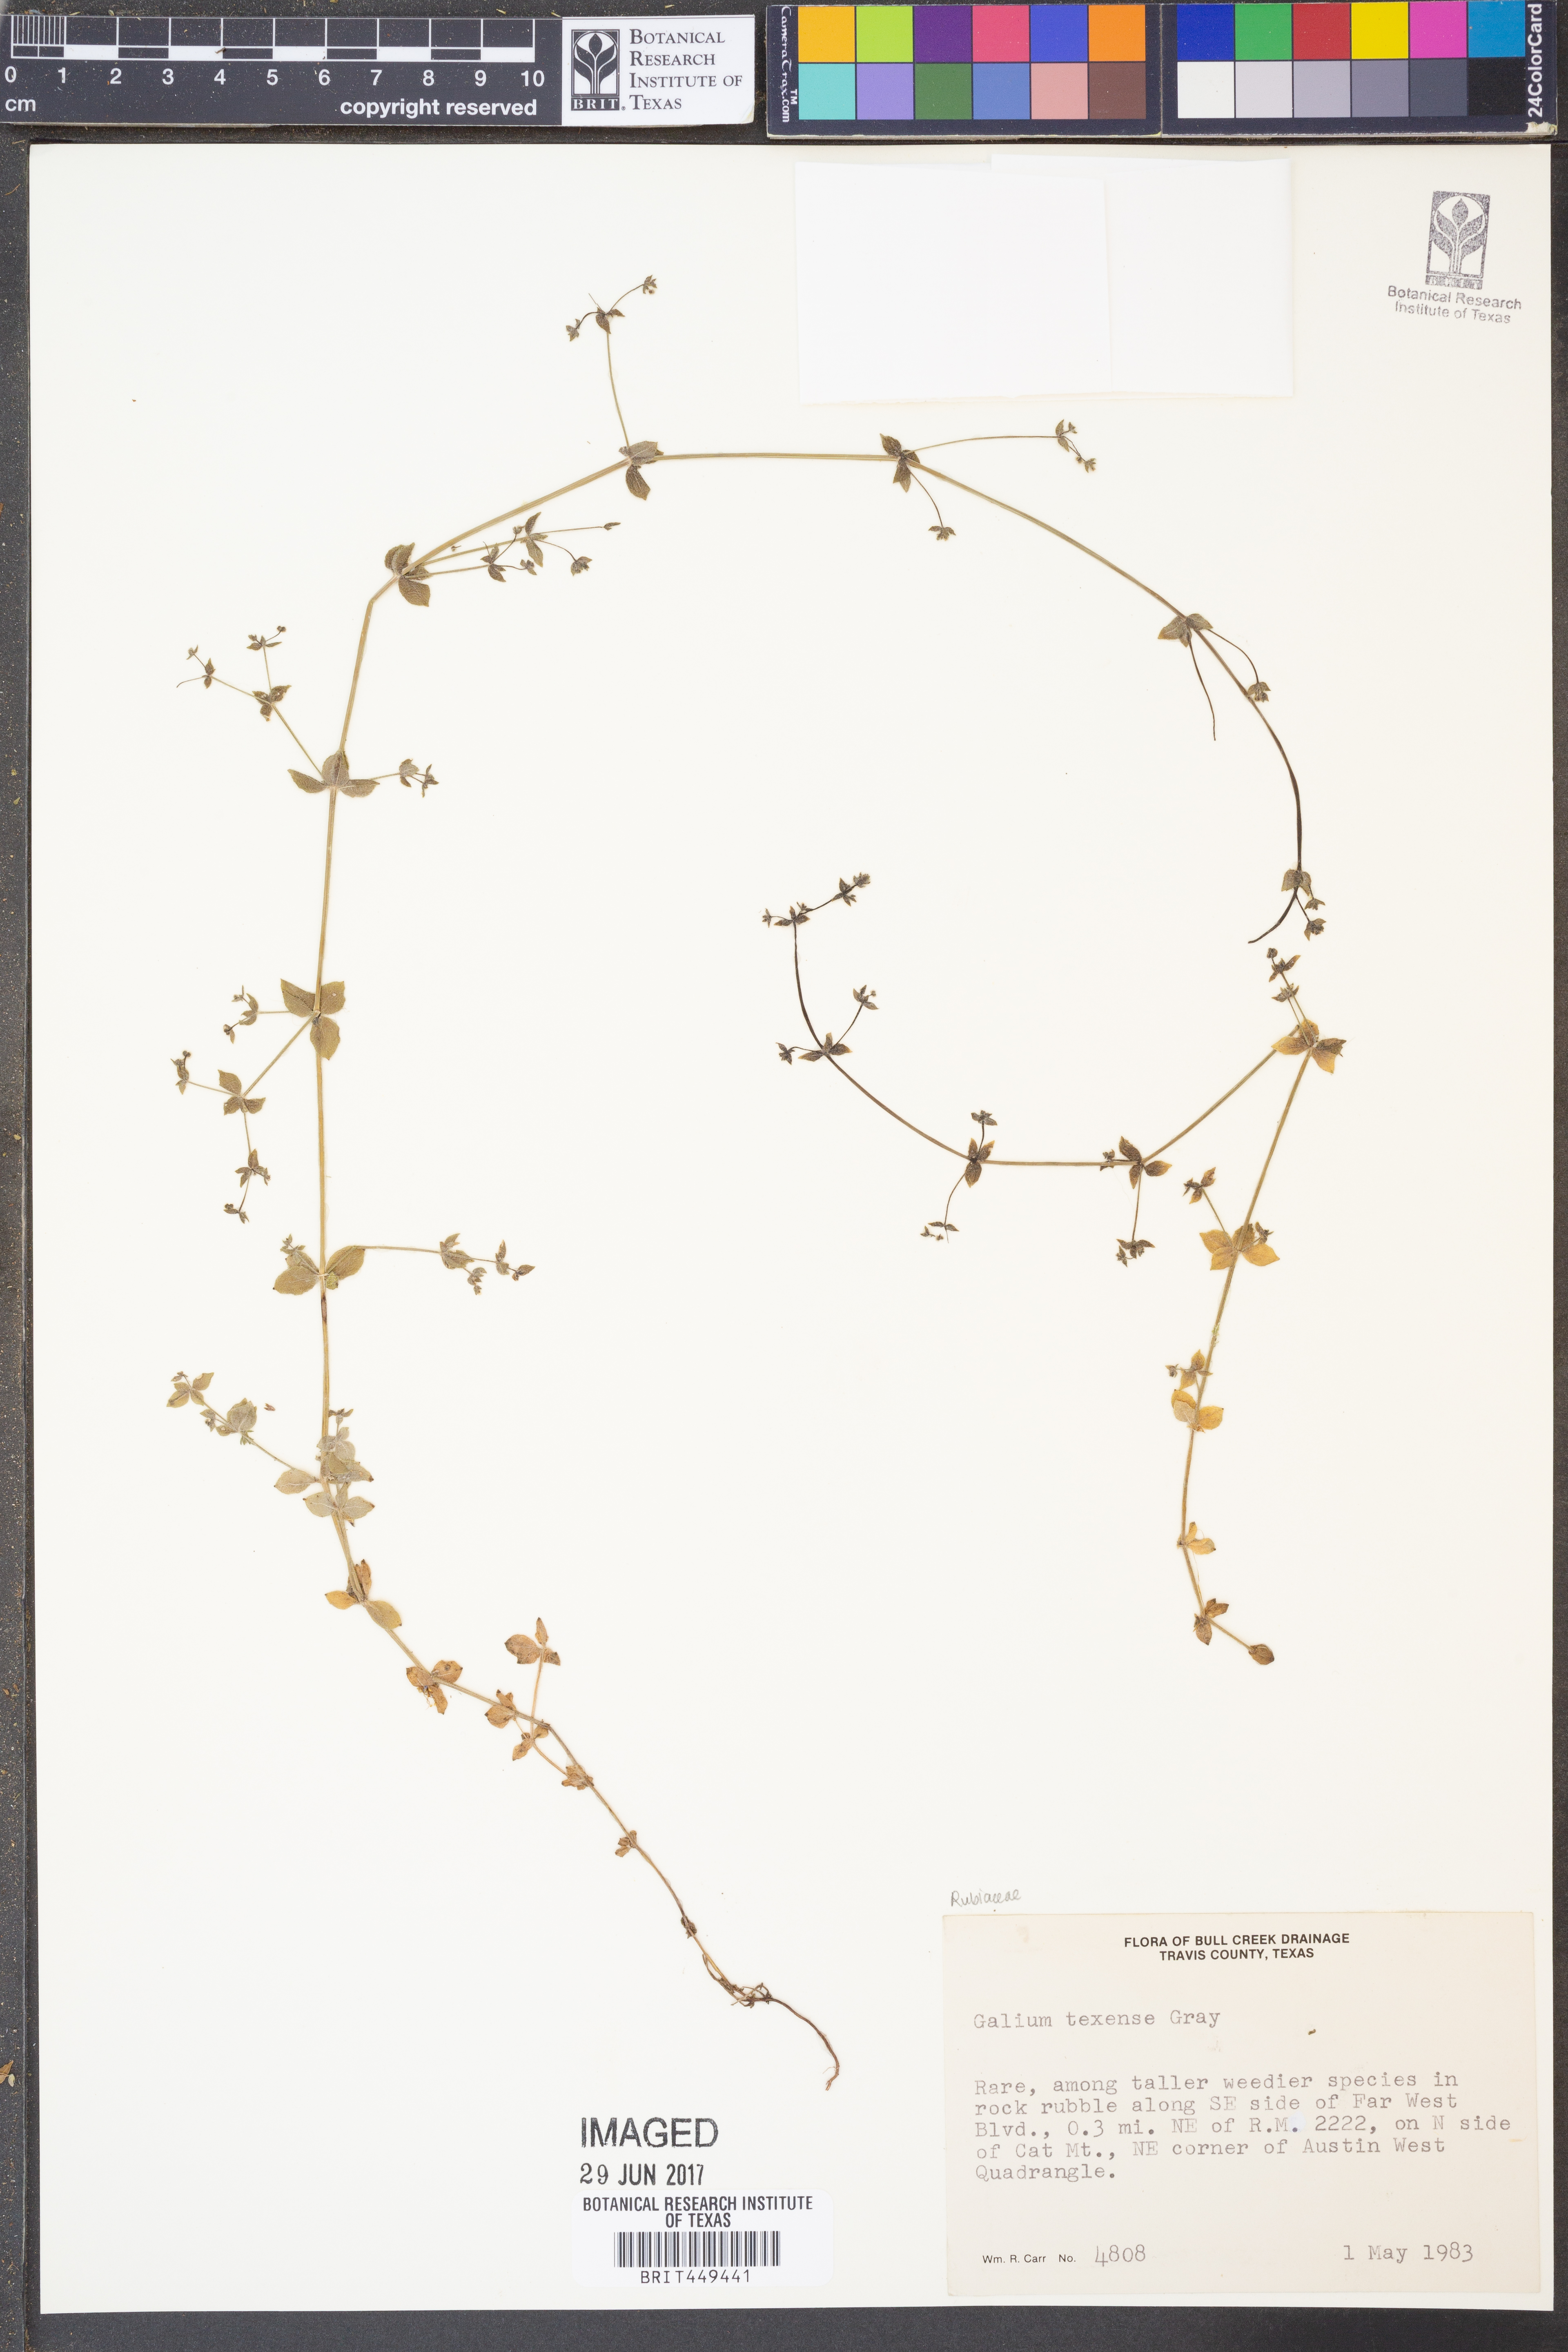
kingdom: Plantae
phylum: Tracheophyta
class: Magnoliopsida
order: Gentianales
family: Rubiaceae
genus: Galium
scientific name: Galium texense
